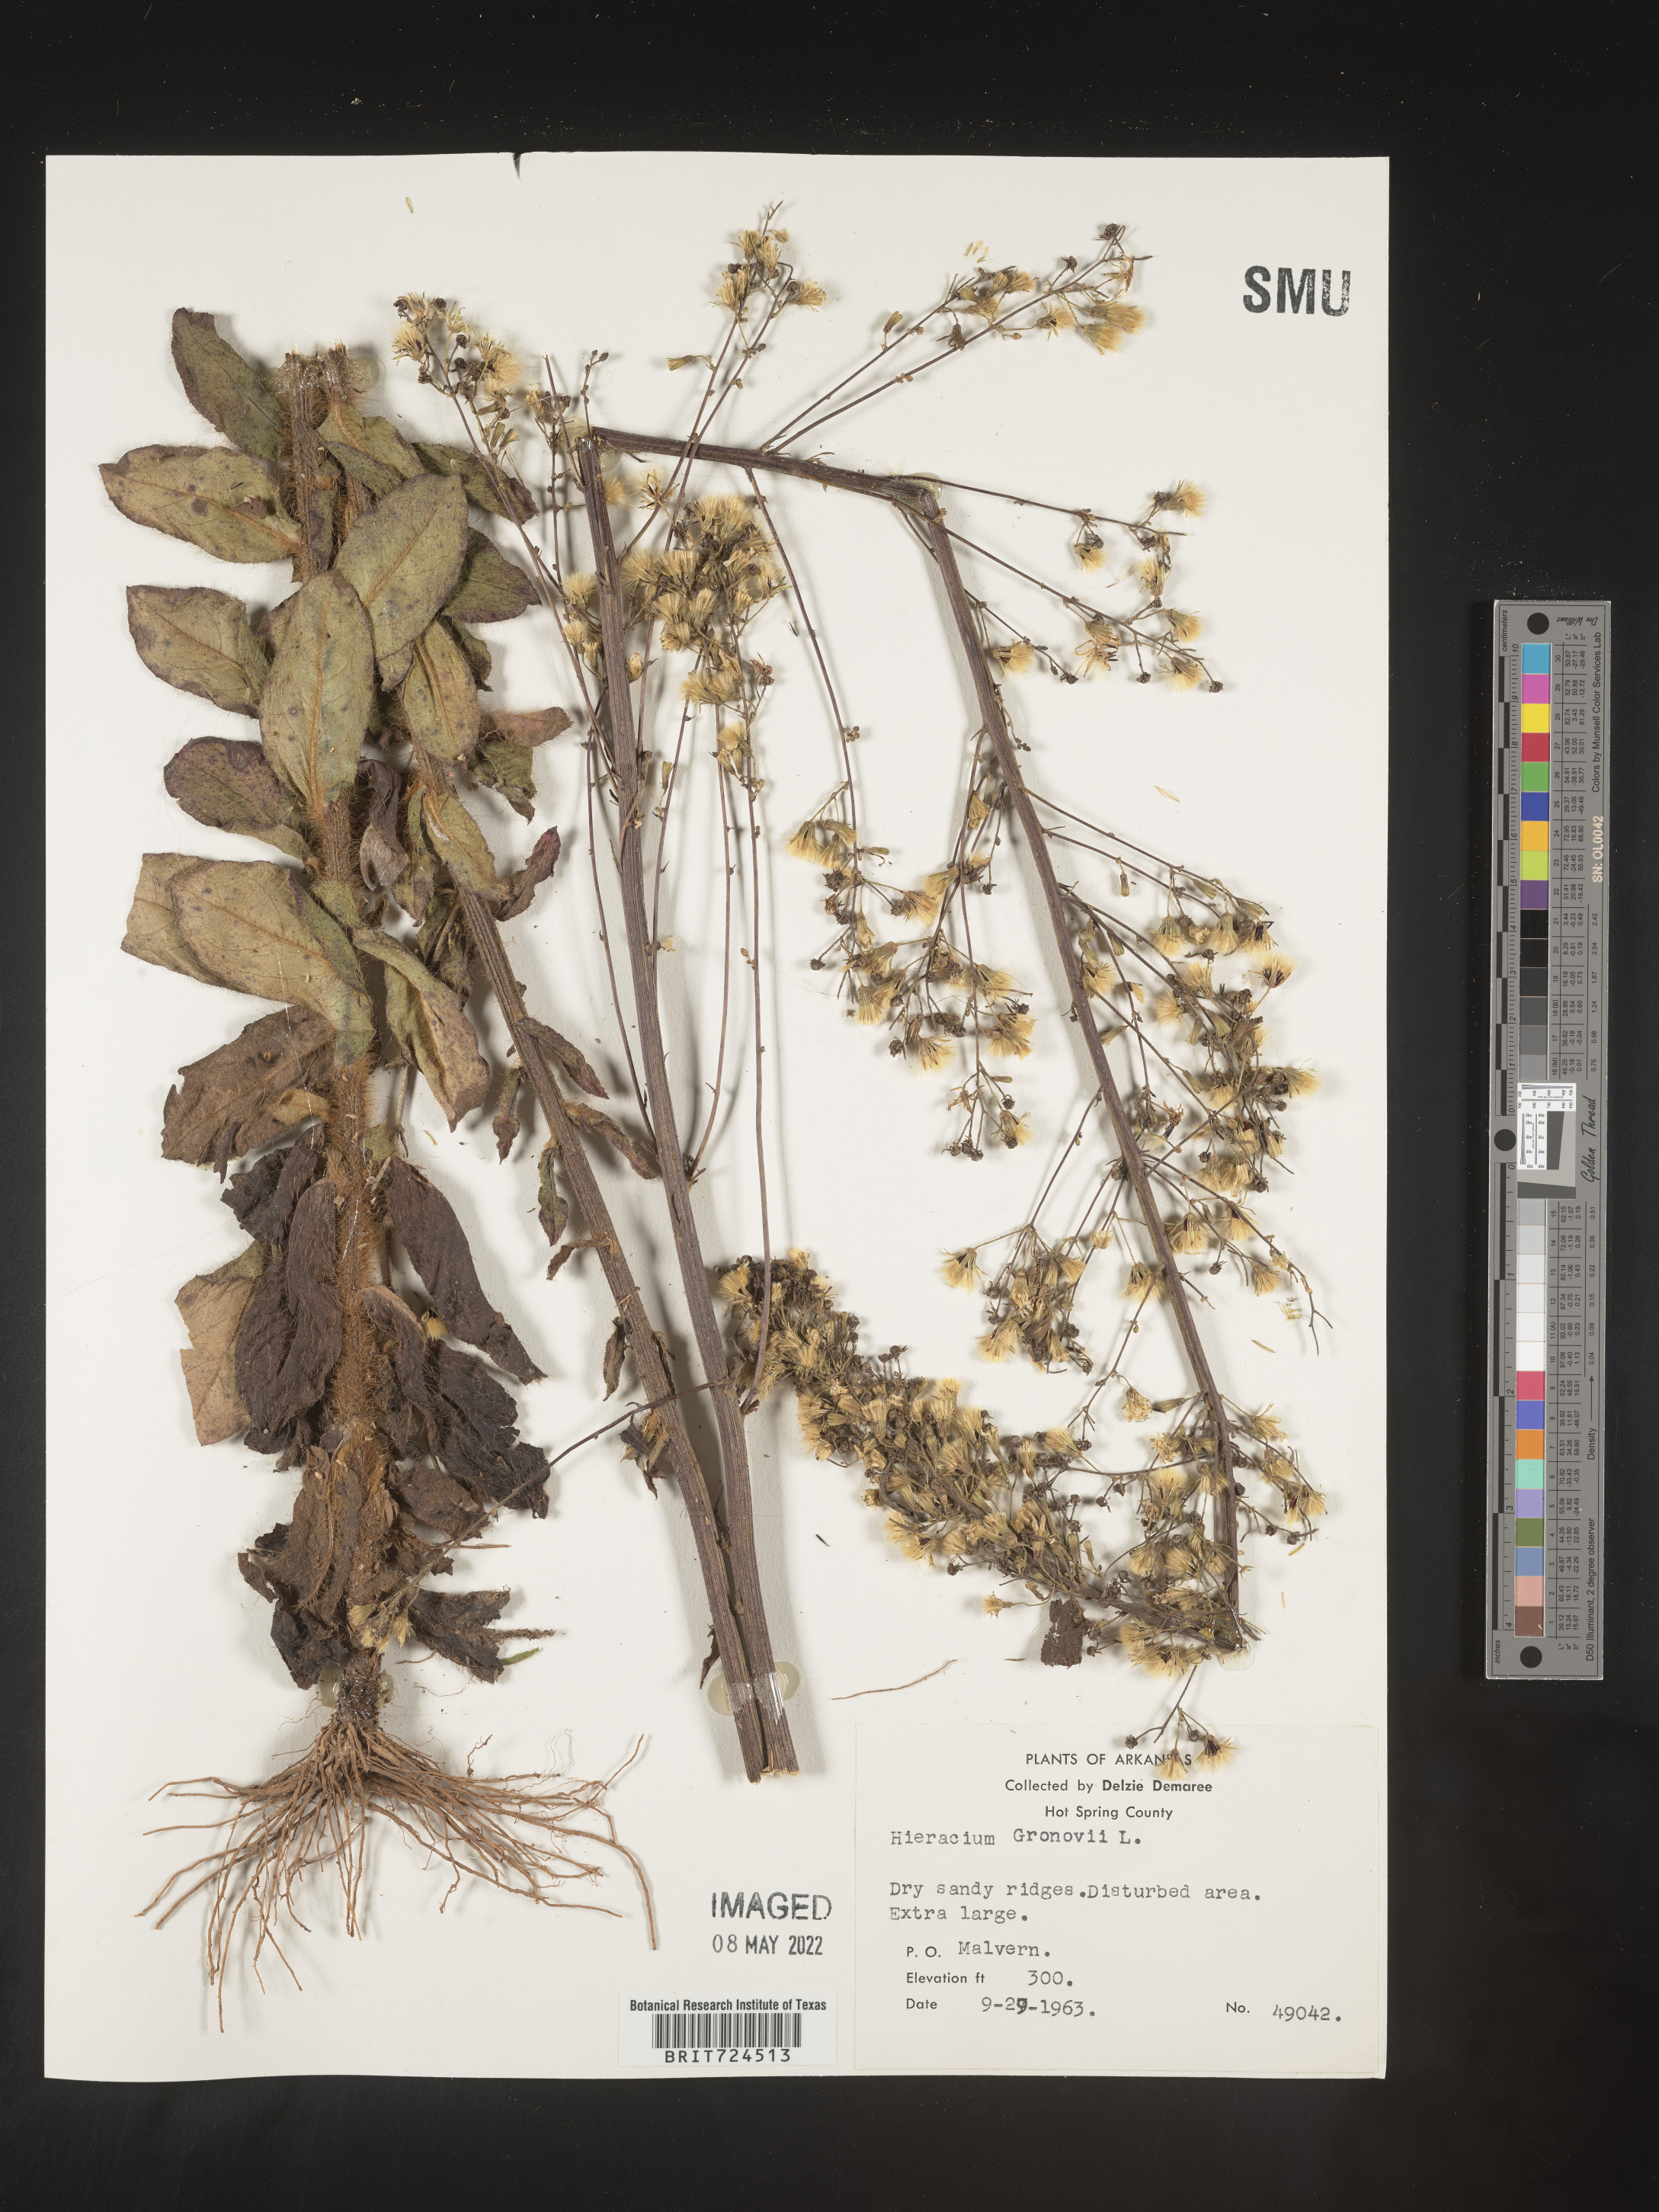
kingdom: Plantae
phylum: Tracheophyta
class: Magnoliopsida
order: Asterales
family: Asteraceae
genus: Hieracium
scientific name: Hieracium gronovii
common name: Beaked hawkweed
